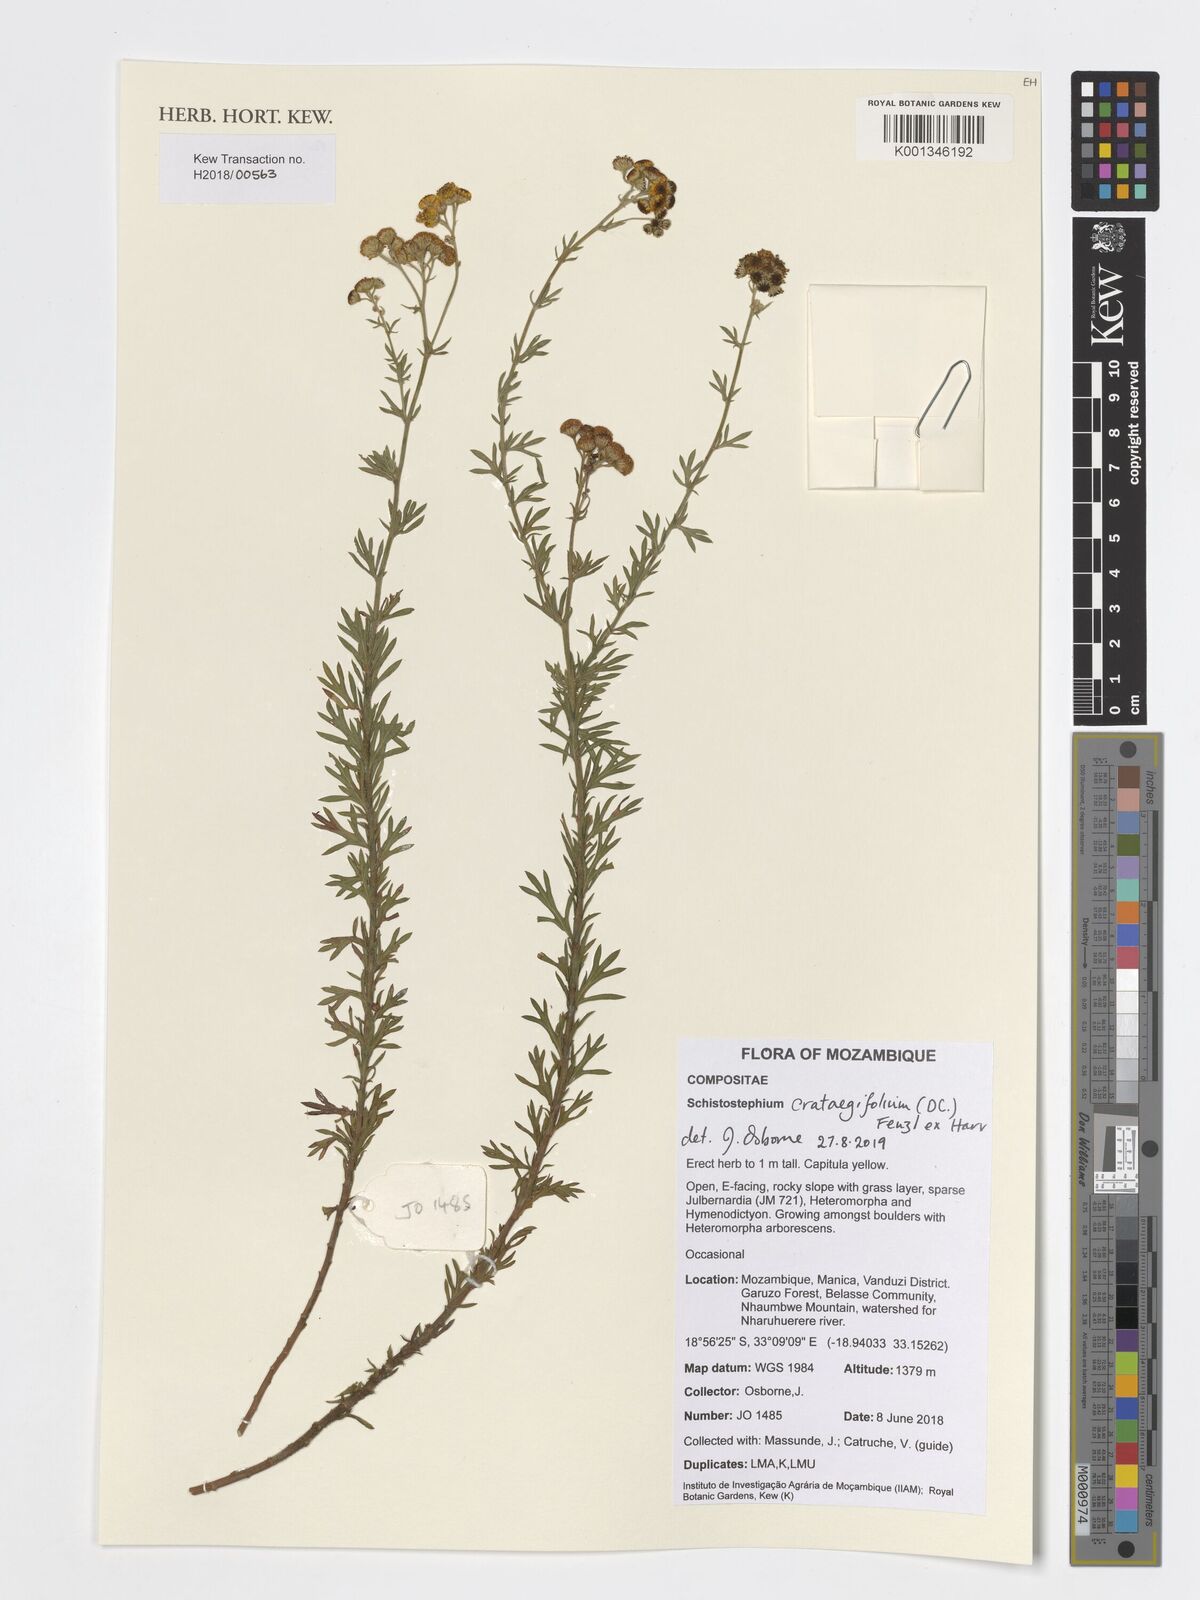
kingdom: Plantae
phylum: Tracheophyta
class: Magnoliopsida
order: Asterales
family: Asteraceae
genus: Schistostephium
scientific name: Schistostephium crataegifolium
